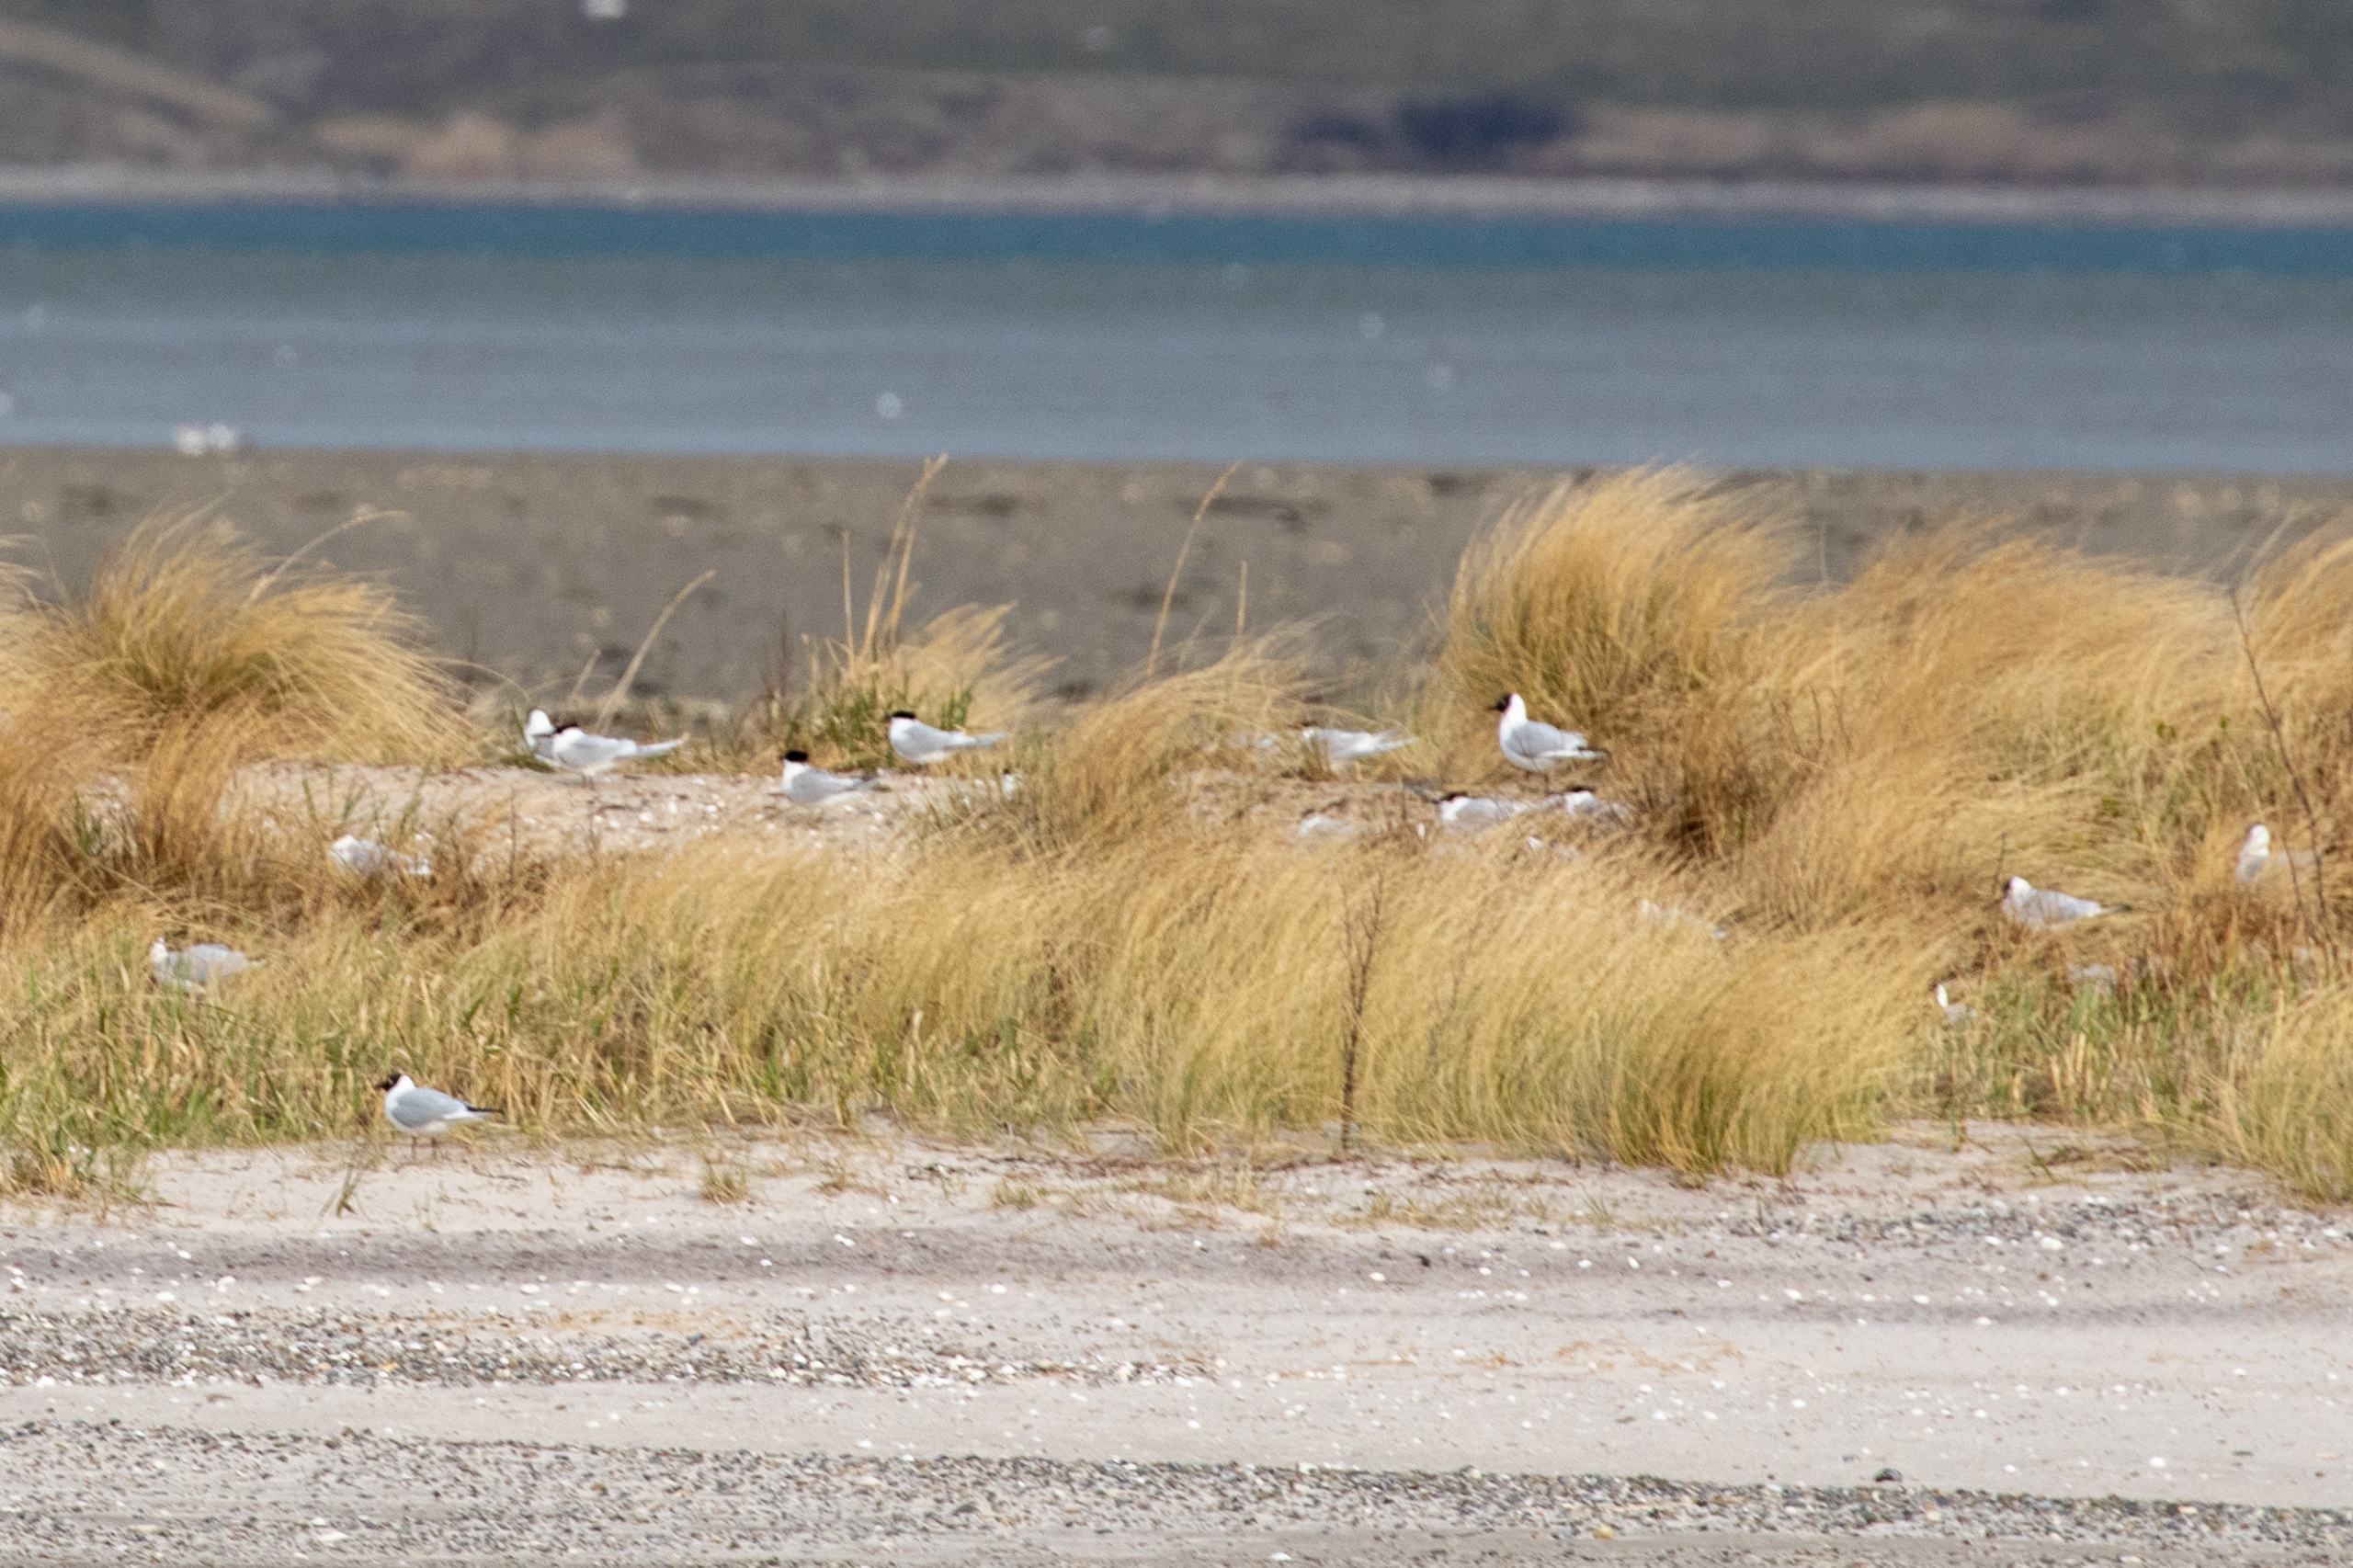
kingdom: Animalia
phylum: Chordata
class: Aves
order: Charadriiformes
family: Laridae
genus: Chroicocephalus
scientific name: Chroicocephalus ridibundus
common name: Hættemåge
